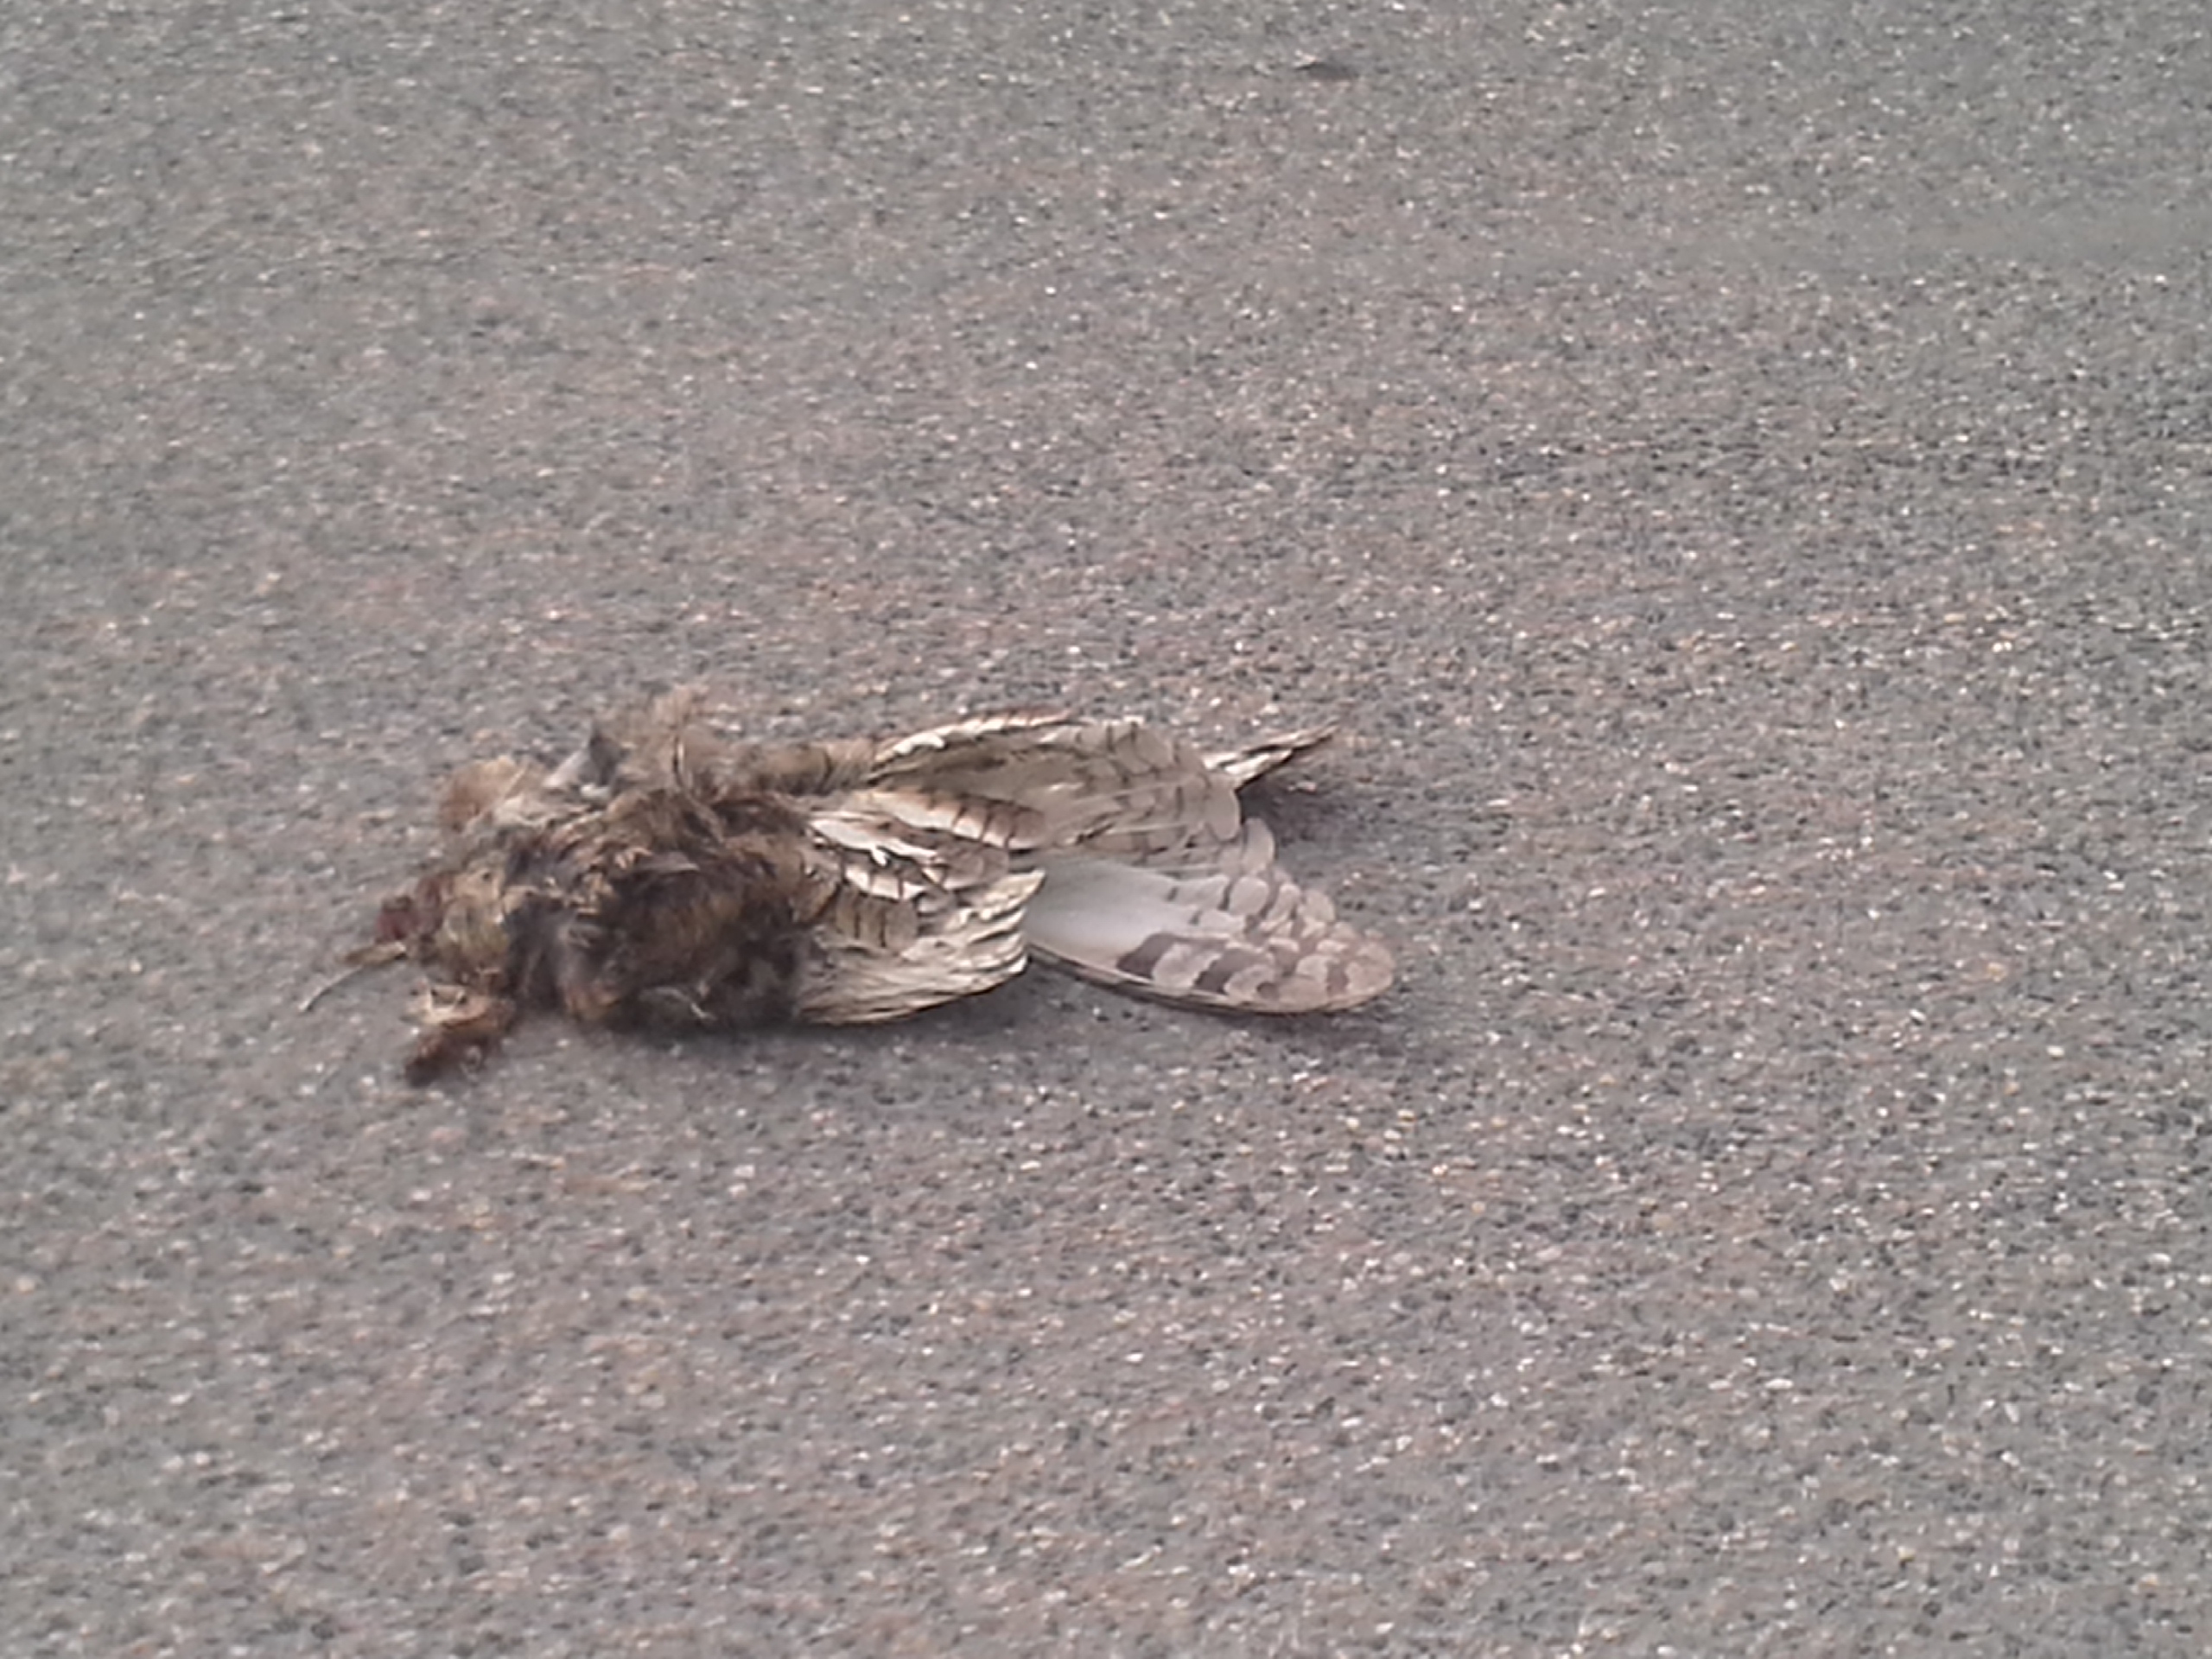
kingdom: Animalia
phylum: Chordata
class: Aves
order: Strigiformes
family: Strigidae
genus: Asio
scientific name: Asio otus
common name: Long-eared owl
